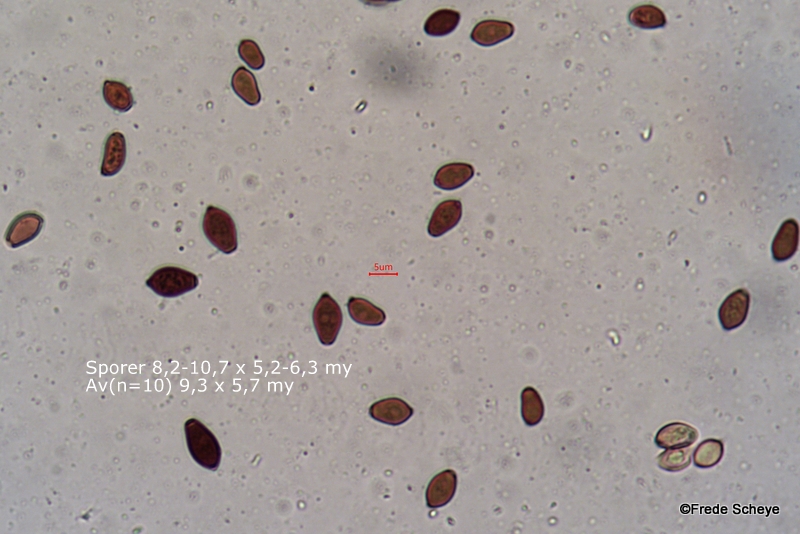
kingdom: Fungi
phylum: Basidiomycota
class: Agaricomycetes
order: Agaricales
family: Psathyrellaceae
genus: Coprinellus
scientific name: Coprinellus micaceus
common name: glimmer-blækhat
